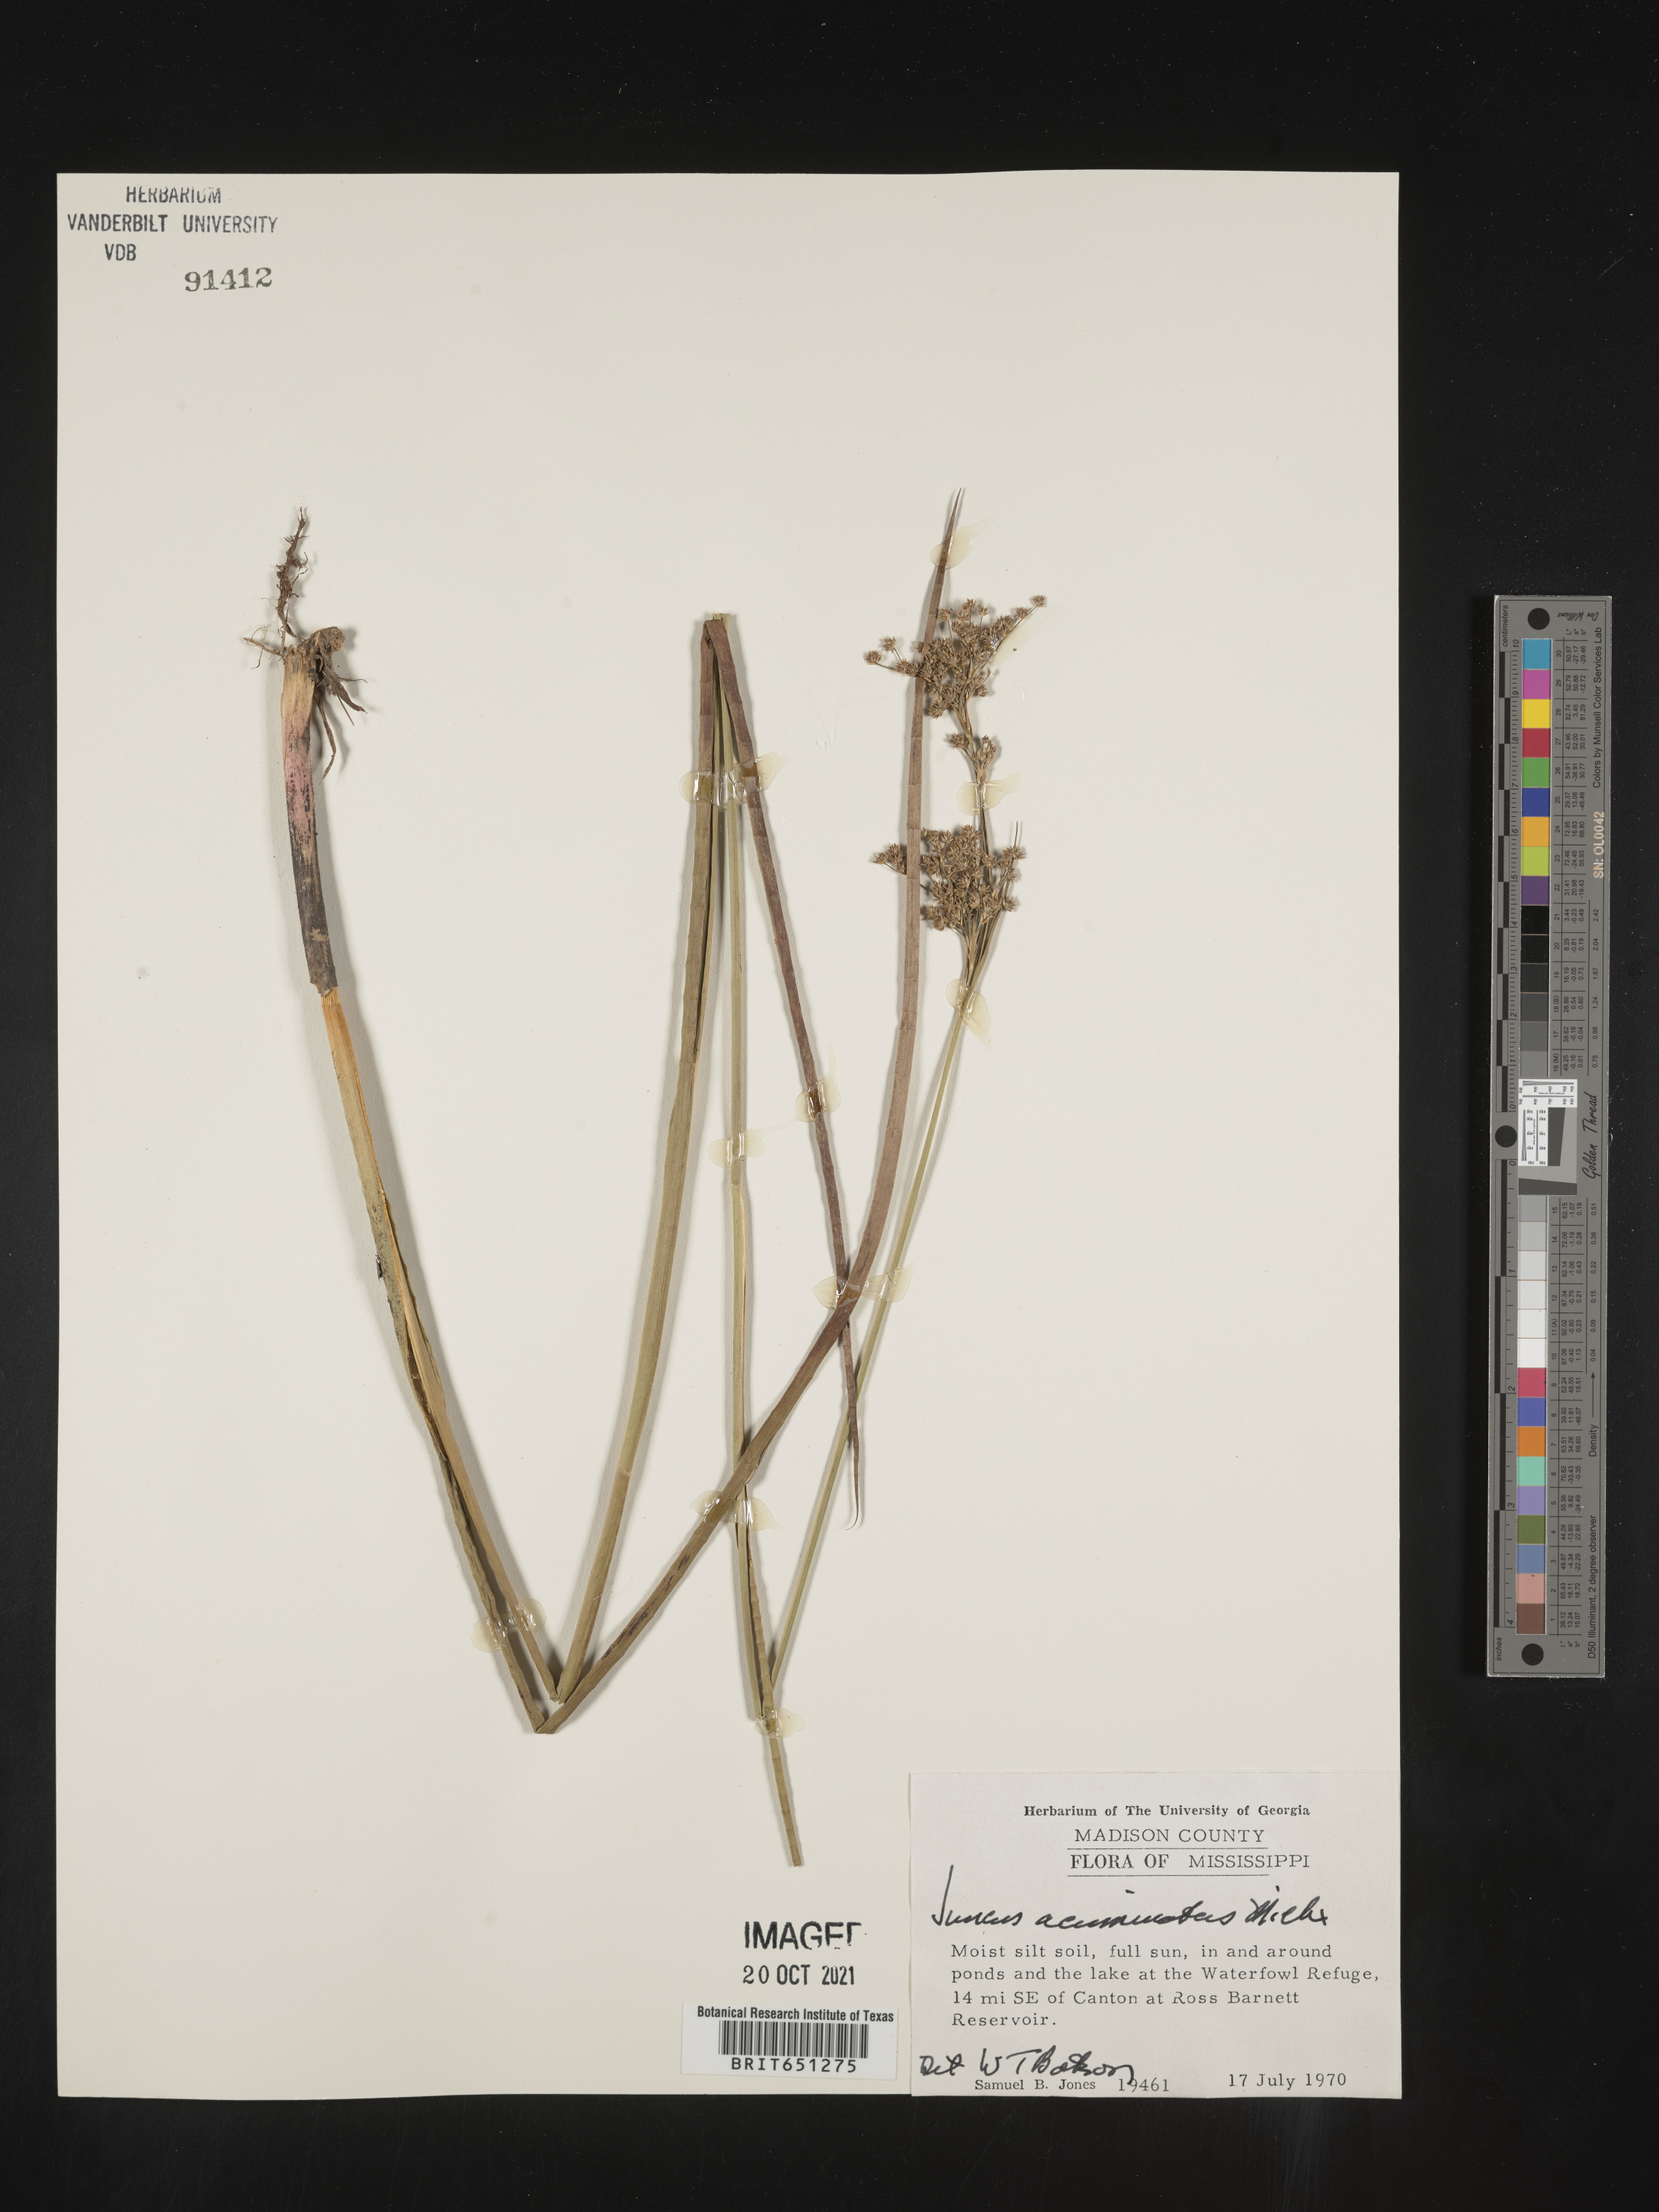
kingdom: Plantae
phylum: Tracheophyta
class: Liliopsida
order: Poales
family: Juncaceae
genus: Juncus
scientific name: Juncus acuminatus
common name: Knotty-leaved rush
